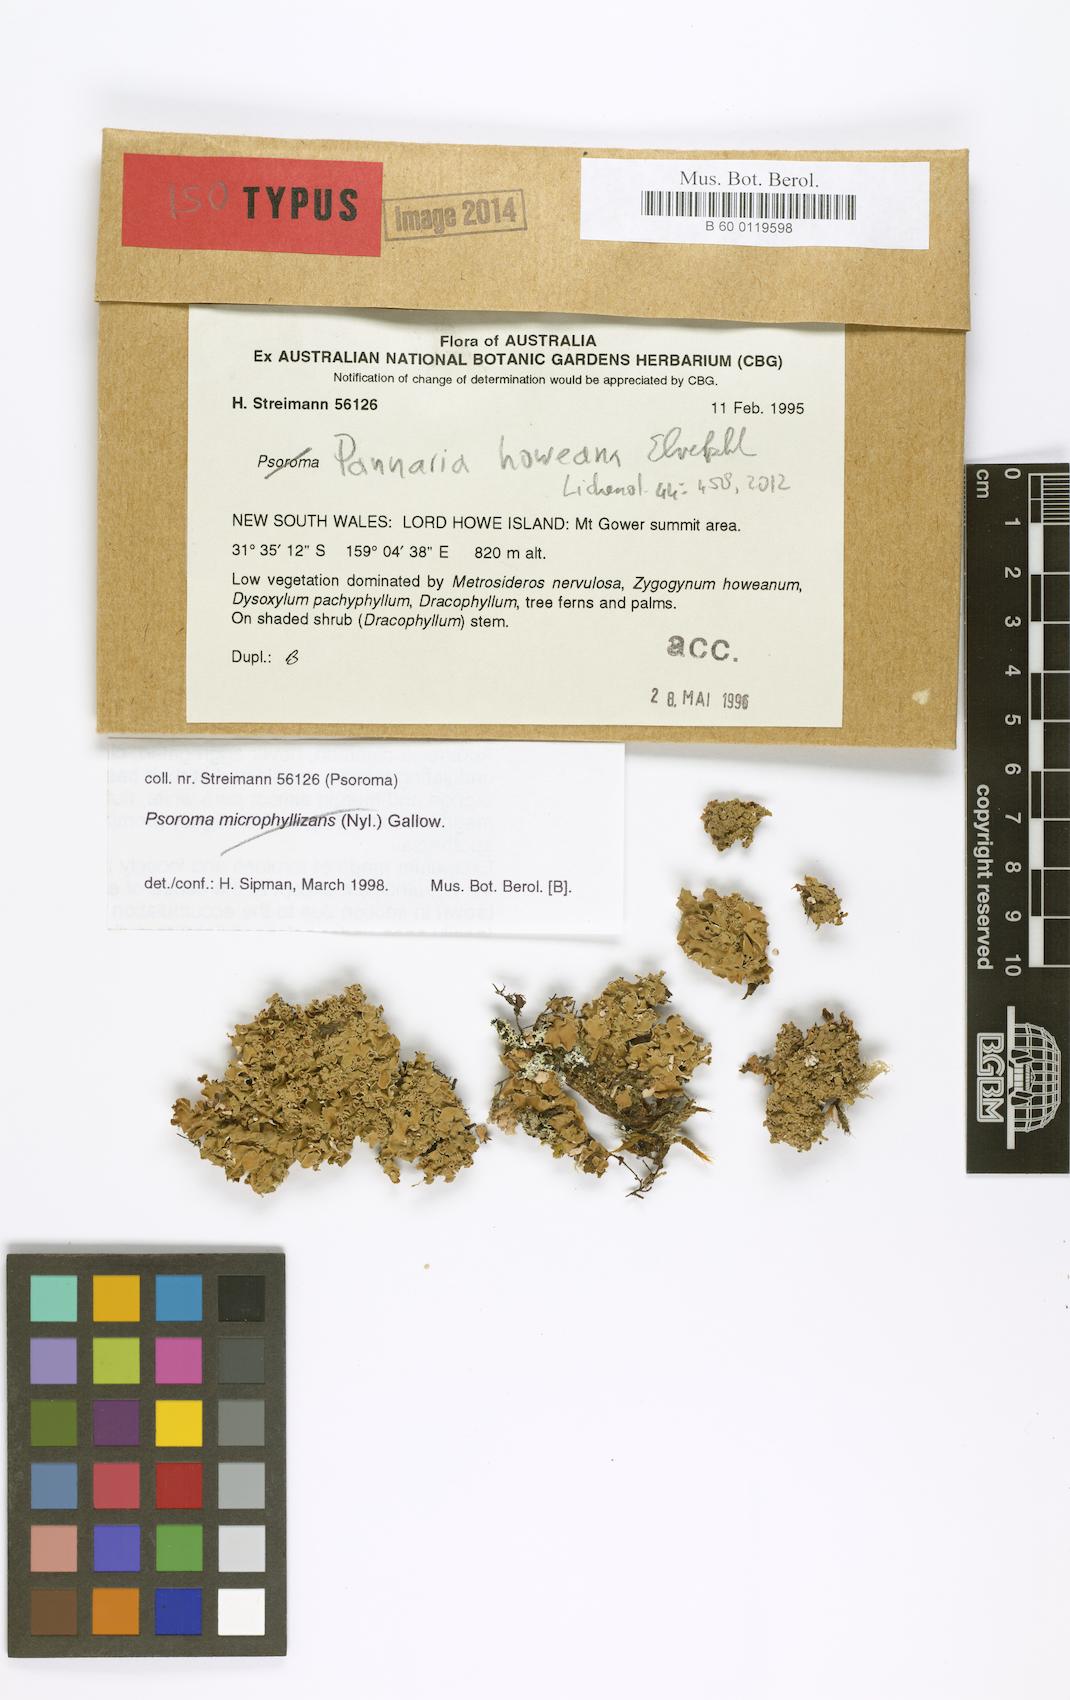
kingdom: Fungi
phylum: Ascomycota
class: Lecanoromycetes
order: Peltigerales
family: Pannariaceae
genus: Pannaria
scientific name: Pannaria howeana
